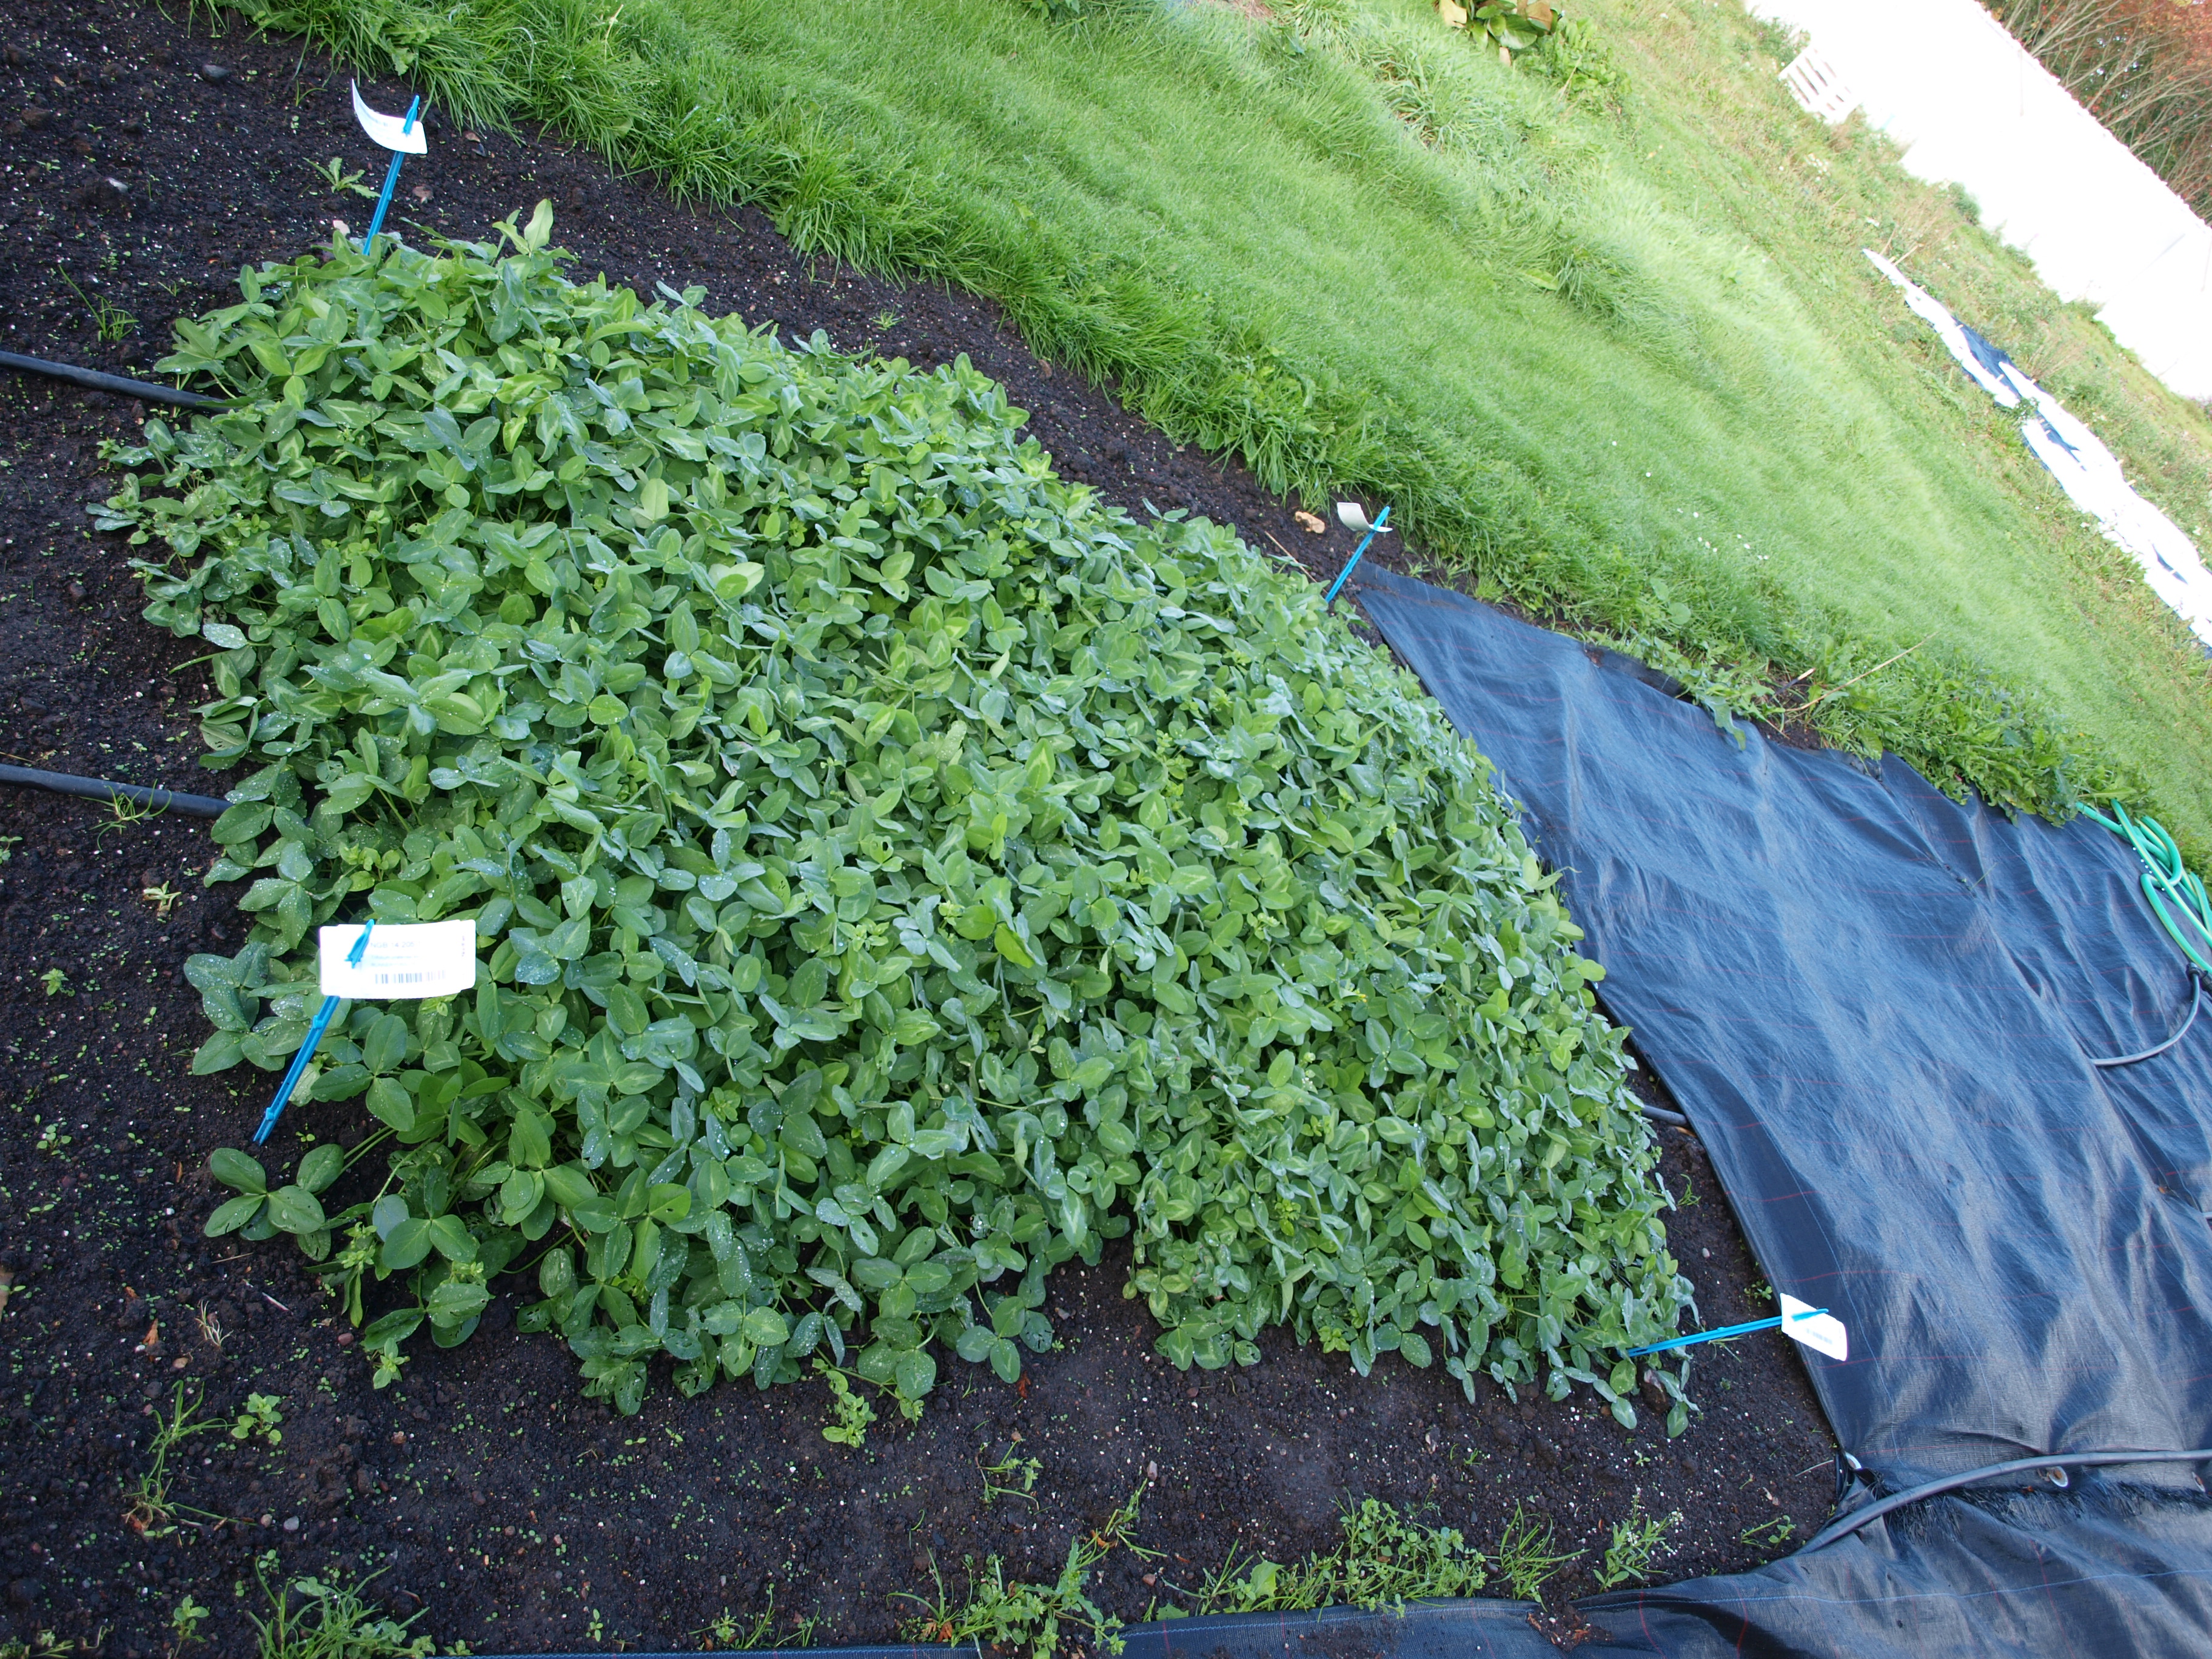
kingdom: Plantae
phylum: Tracheophyta
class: Magnoliopsida
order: Fabales
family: Fabaceae
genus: Trifolium
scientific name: Trifolium pratense
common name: Red clover
